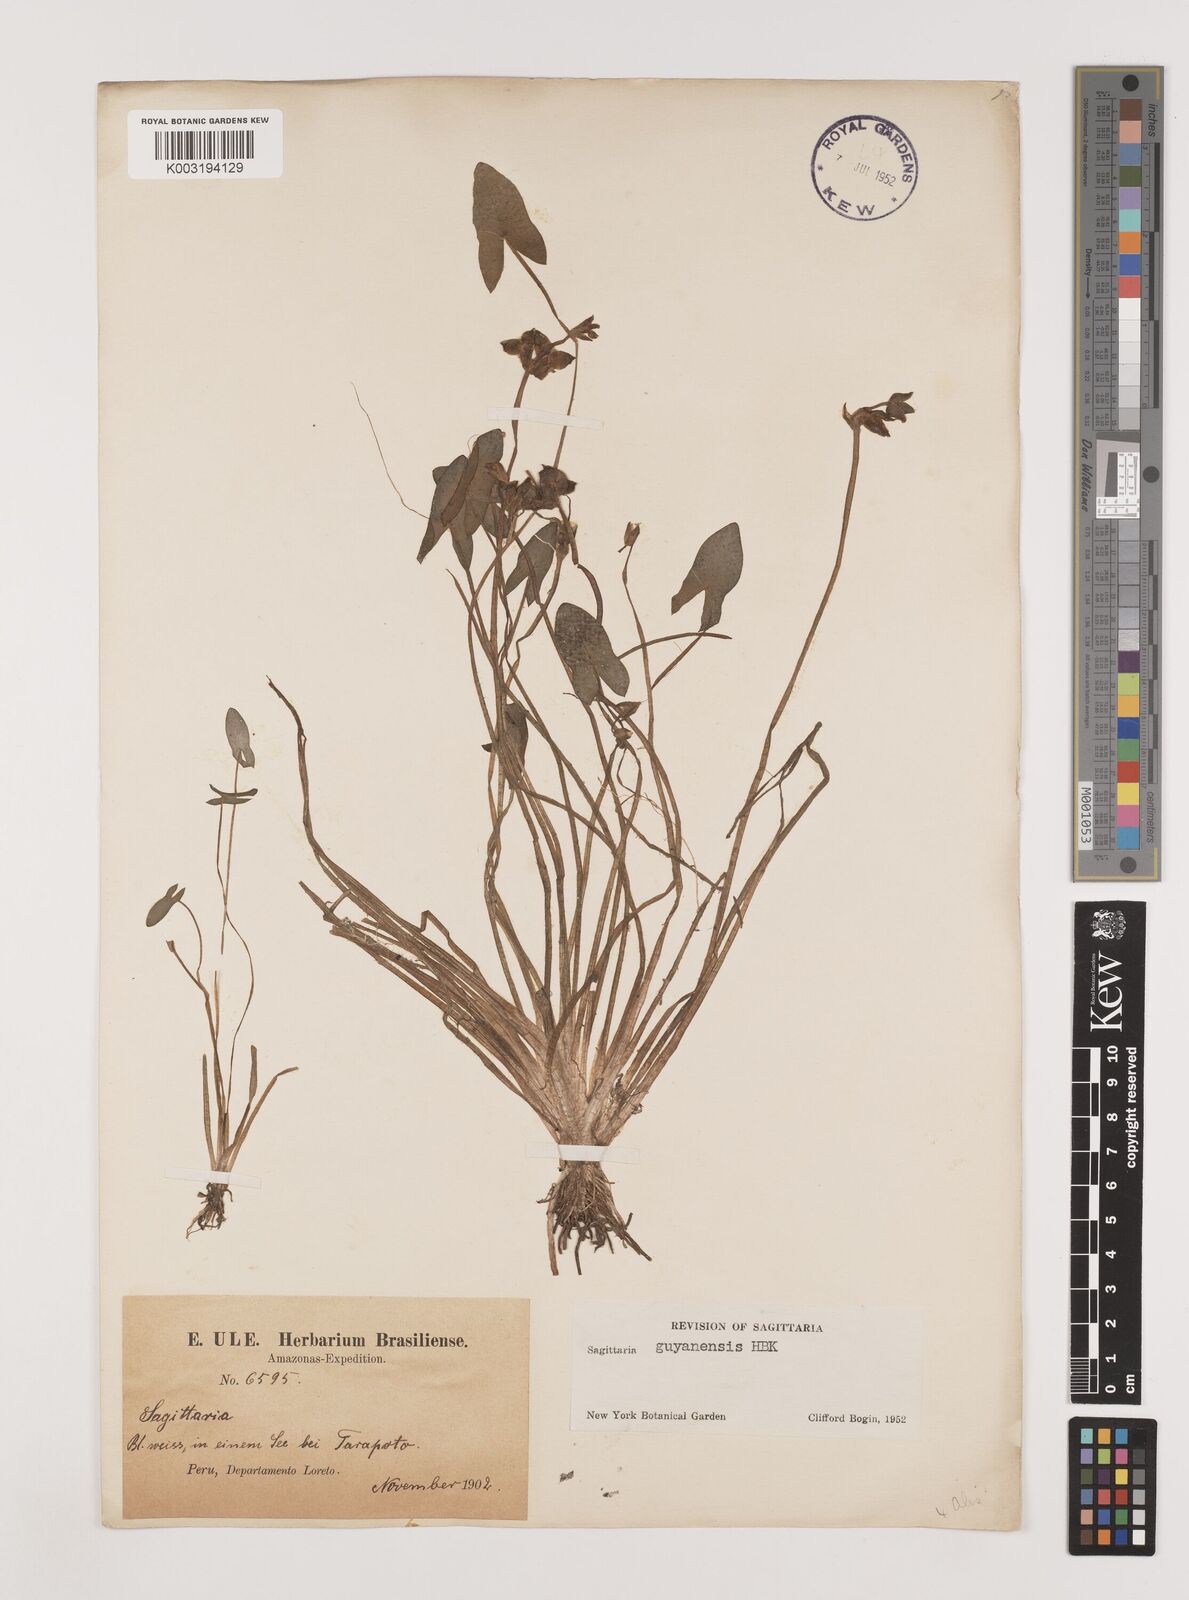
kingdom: Plantae
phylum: Tracheophyta
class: Liliopsida
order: Alismatales
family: Alismataceae
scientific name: Alismataceae
